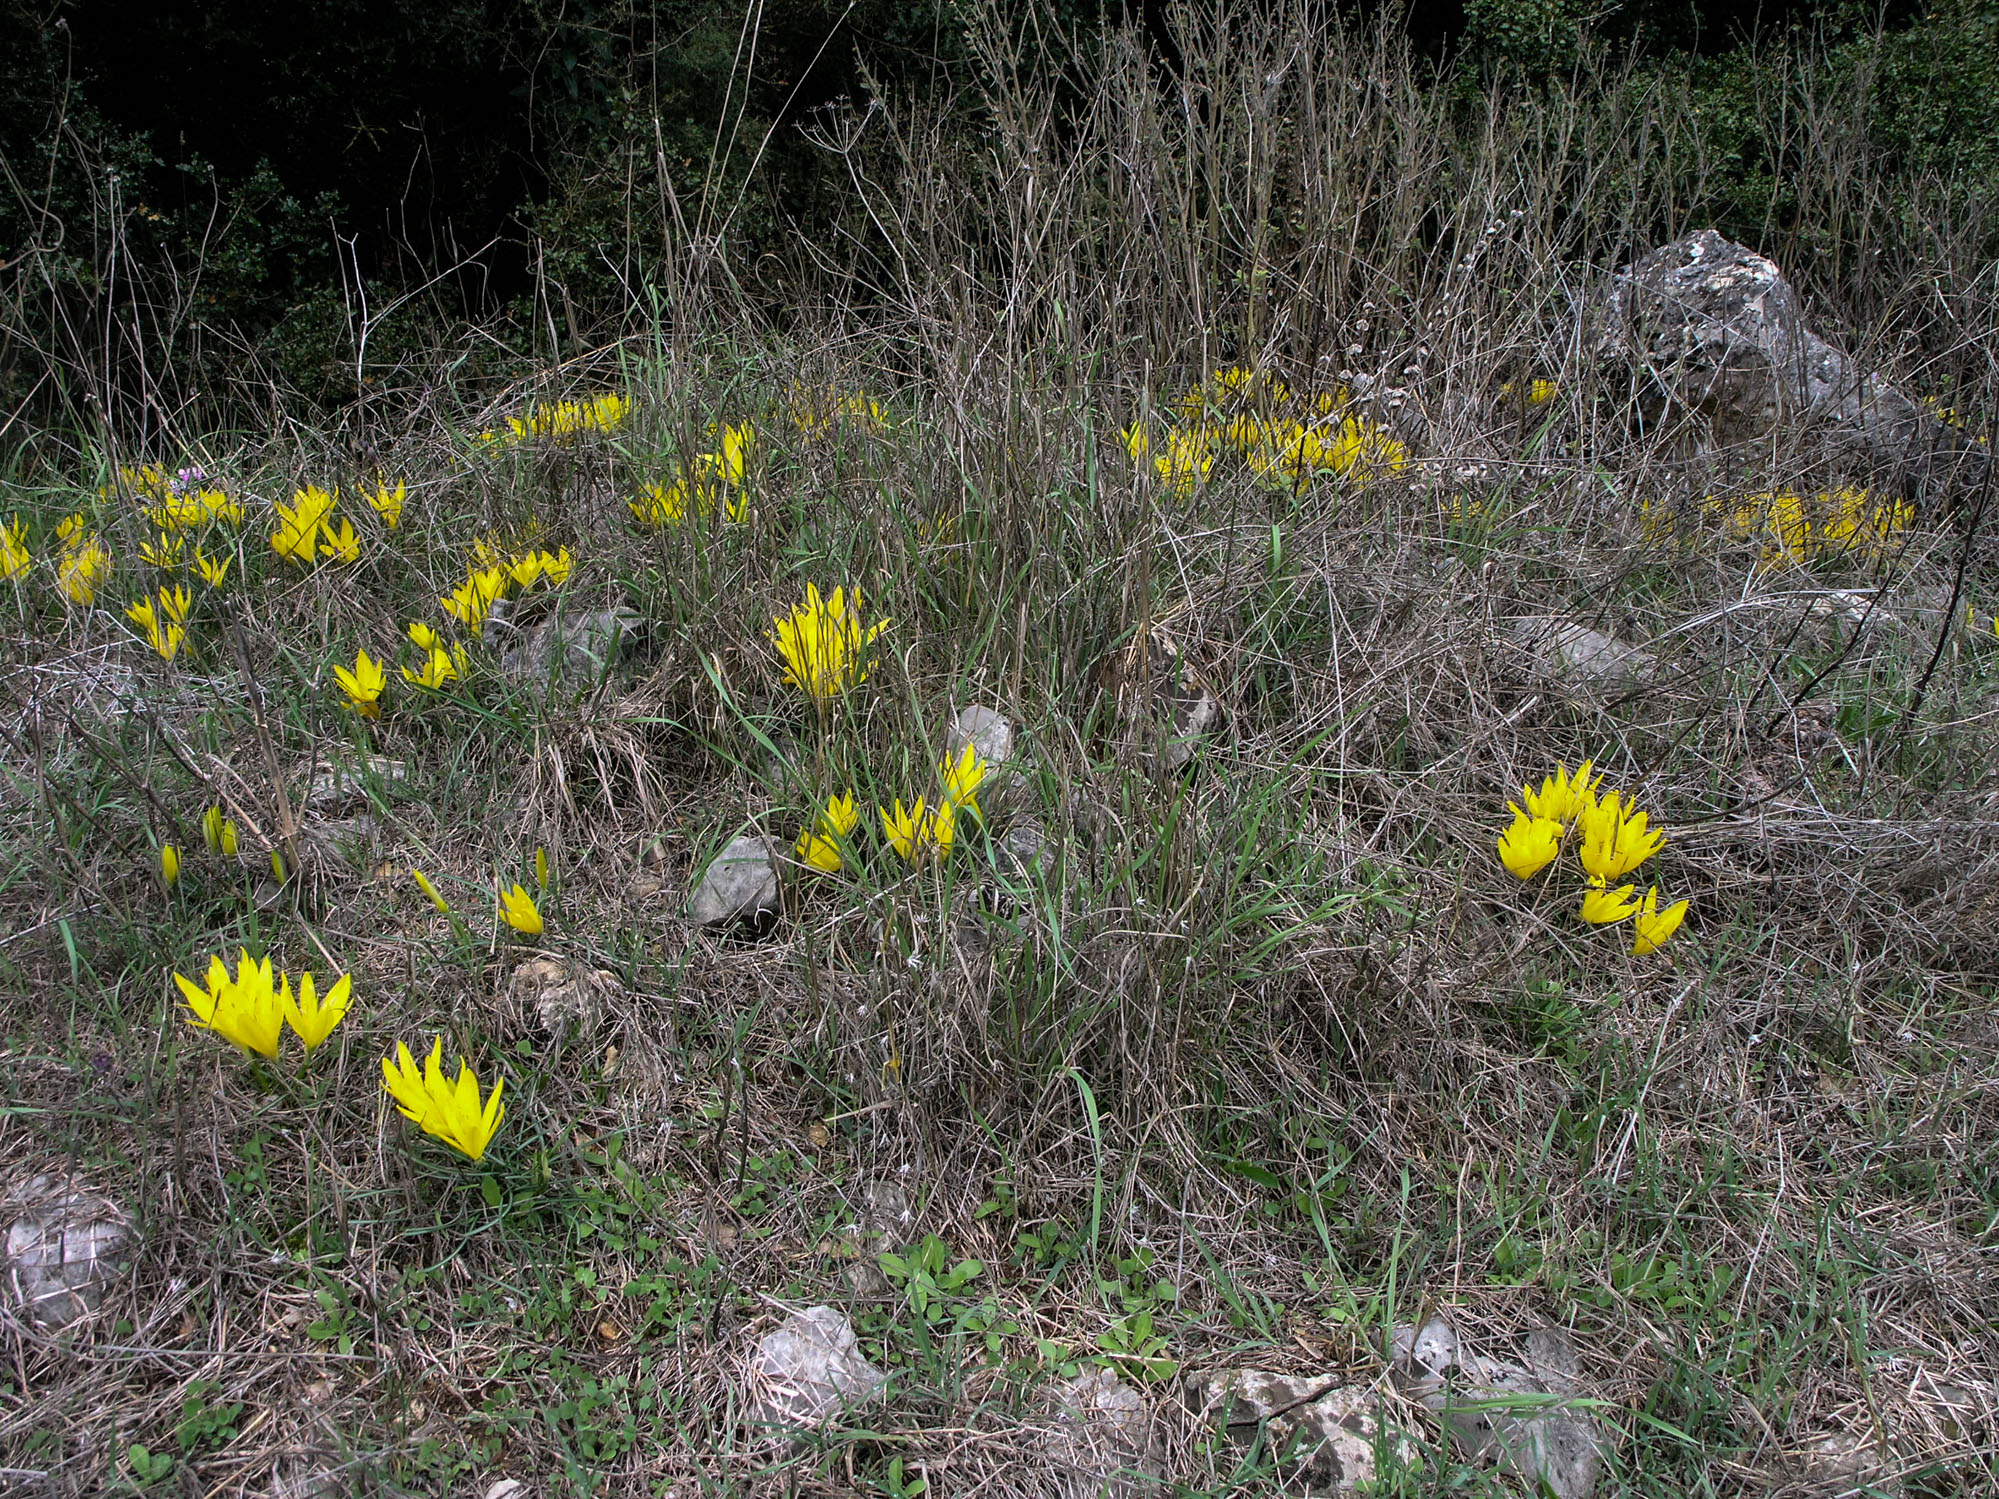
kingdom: Plantae
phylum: Tracheophyta
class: Liliopsida
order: Asparagales
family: Amaryllidaceae
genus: Sternbergia
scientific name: Sternbergia lutea
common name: Winter daffodil
